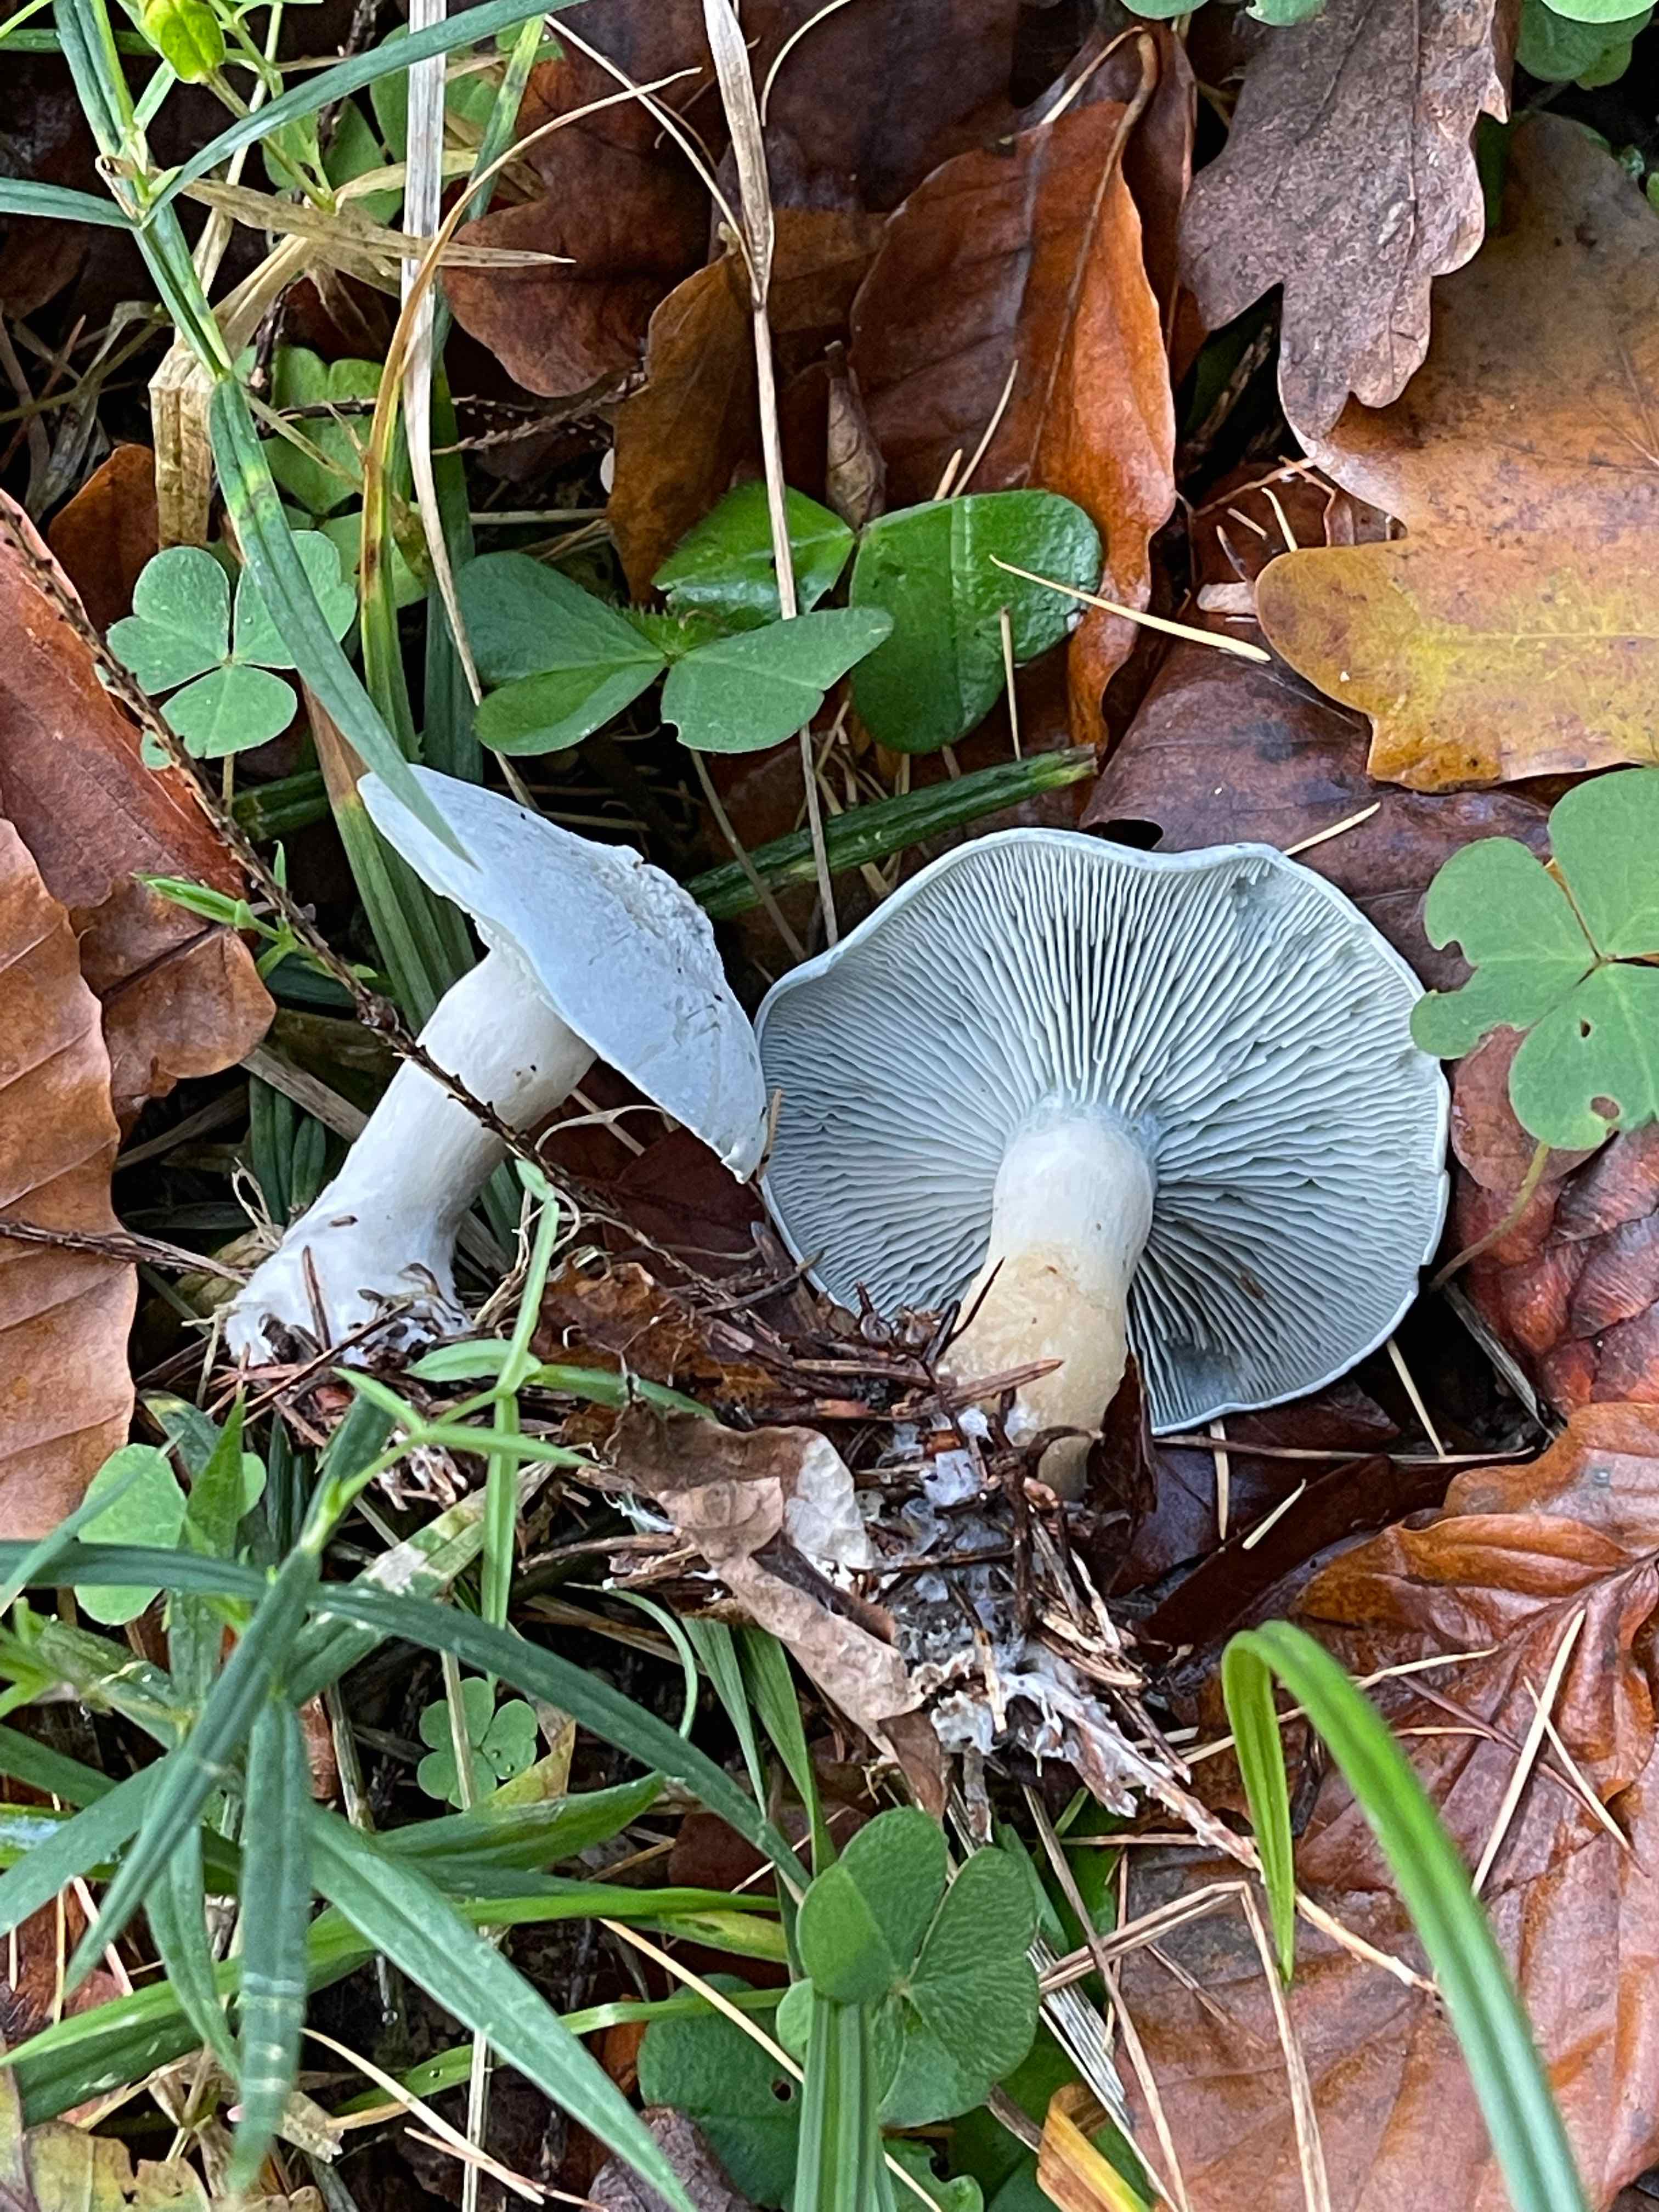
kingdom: Fungi
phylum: Basidiomycota
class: Agaricomycetes
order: Agaricales
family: Tricholomataceae
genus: Clitocybe
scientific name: Clitocybe odora
